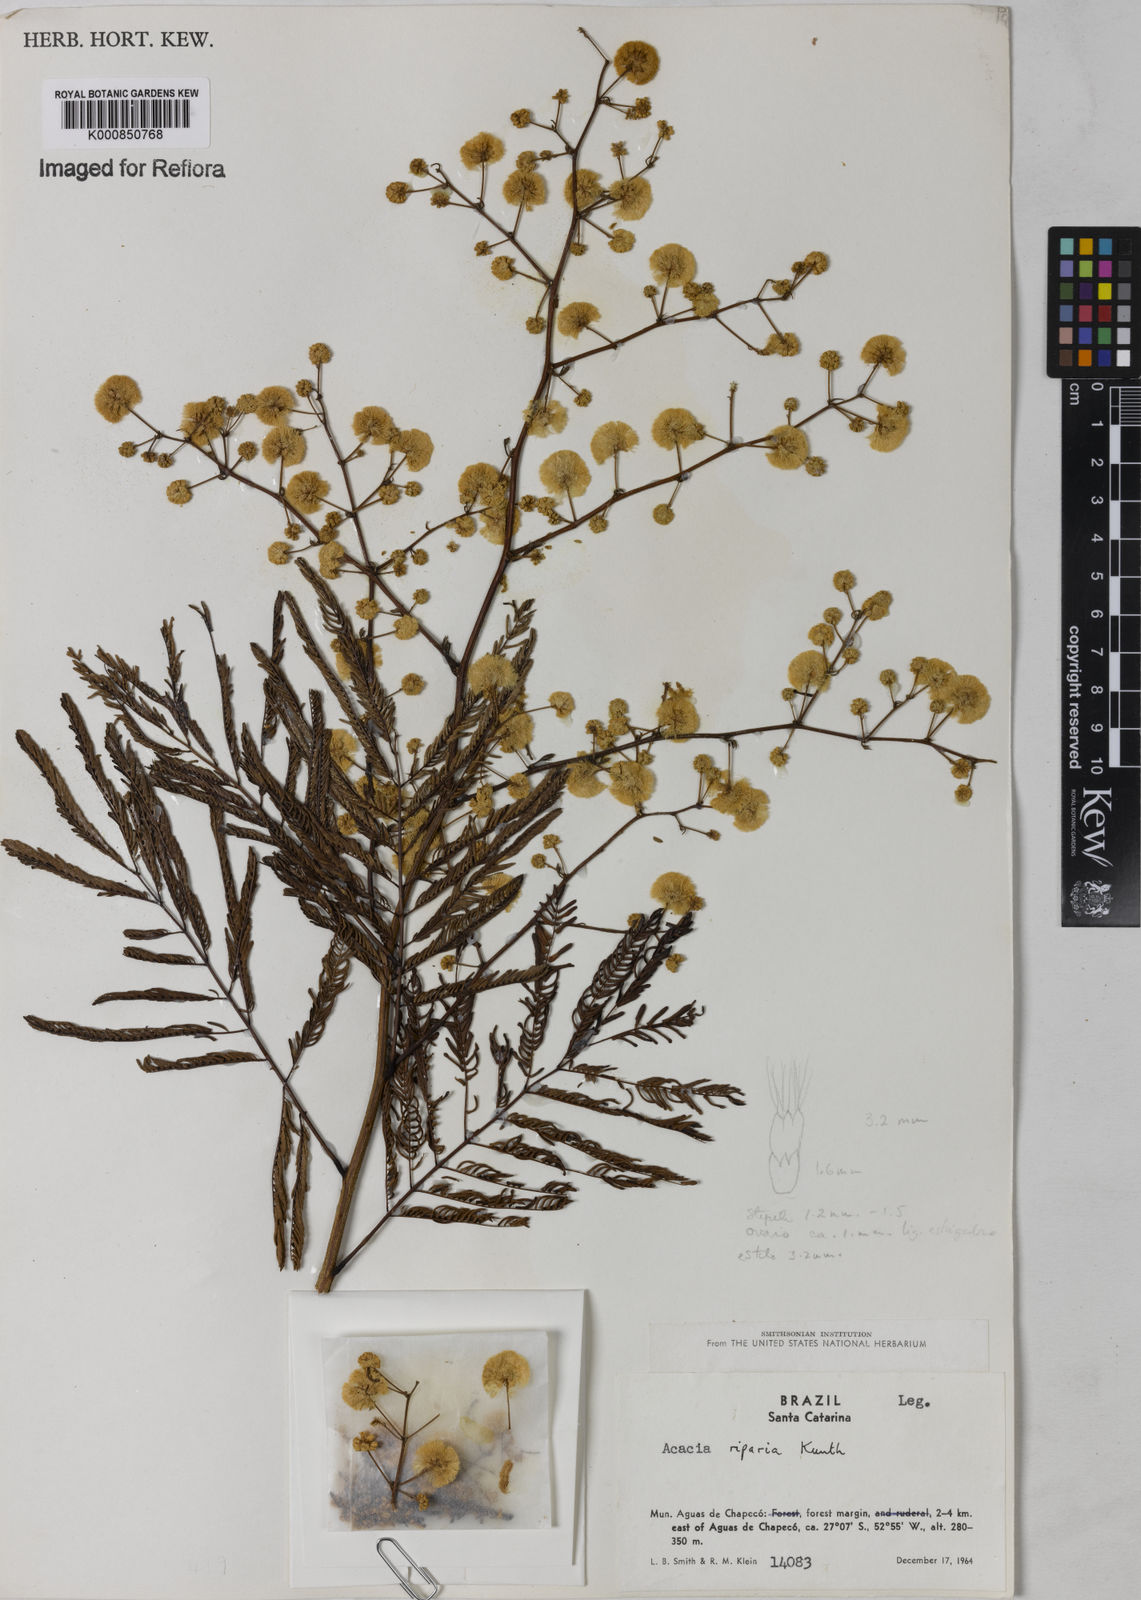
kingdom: Plantae
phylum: Tracheophyta
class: Magnoliopsida
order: Fabales
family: Fabaceae
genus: Senegalia
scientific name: Senegalia riparia
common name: Catch-and-keep
